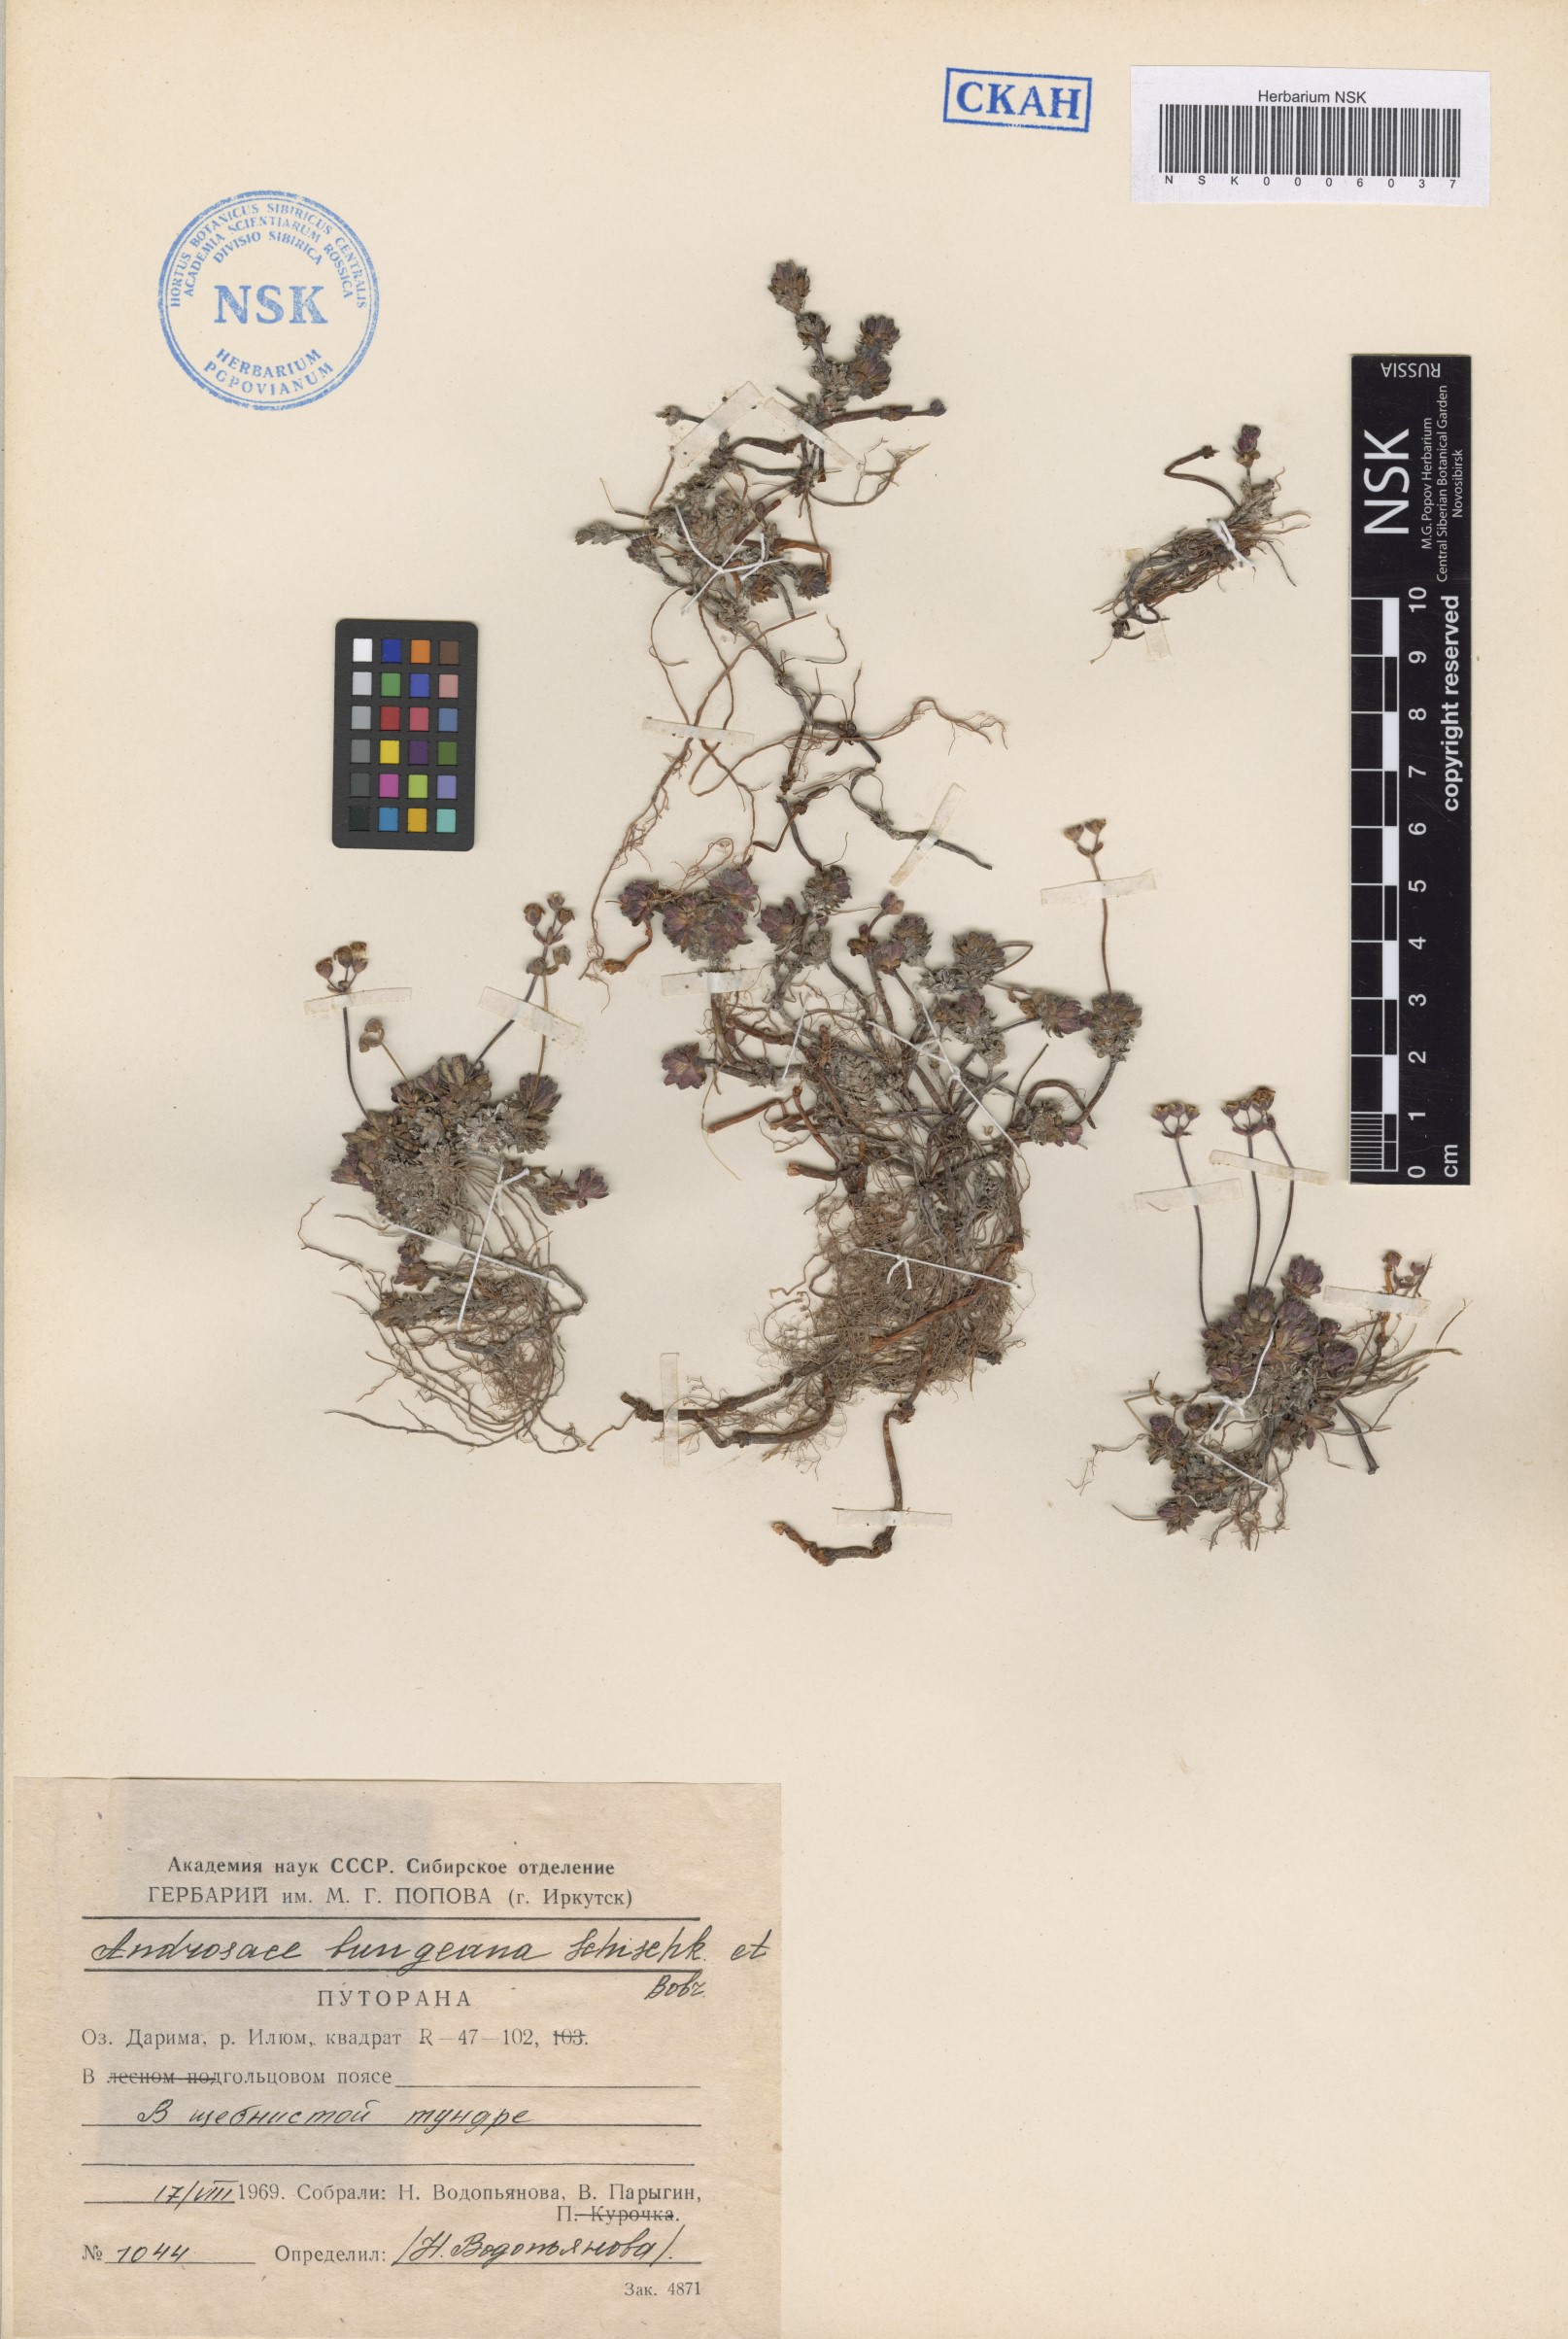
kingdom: Plantae
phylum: Tracheophyta
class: Magnoliopsida
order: Ericales
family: Primulaceae
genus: Androsace
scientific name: Androsace bungeana
